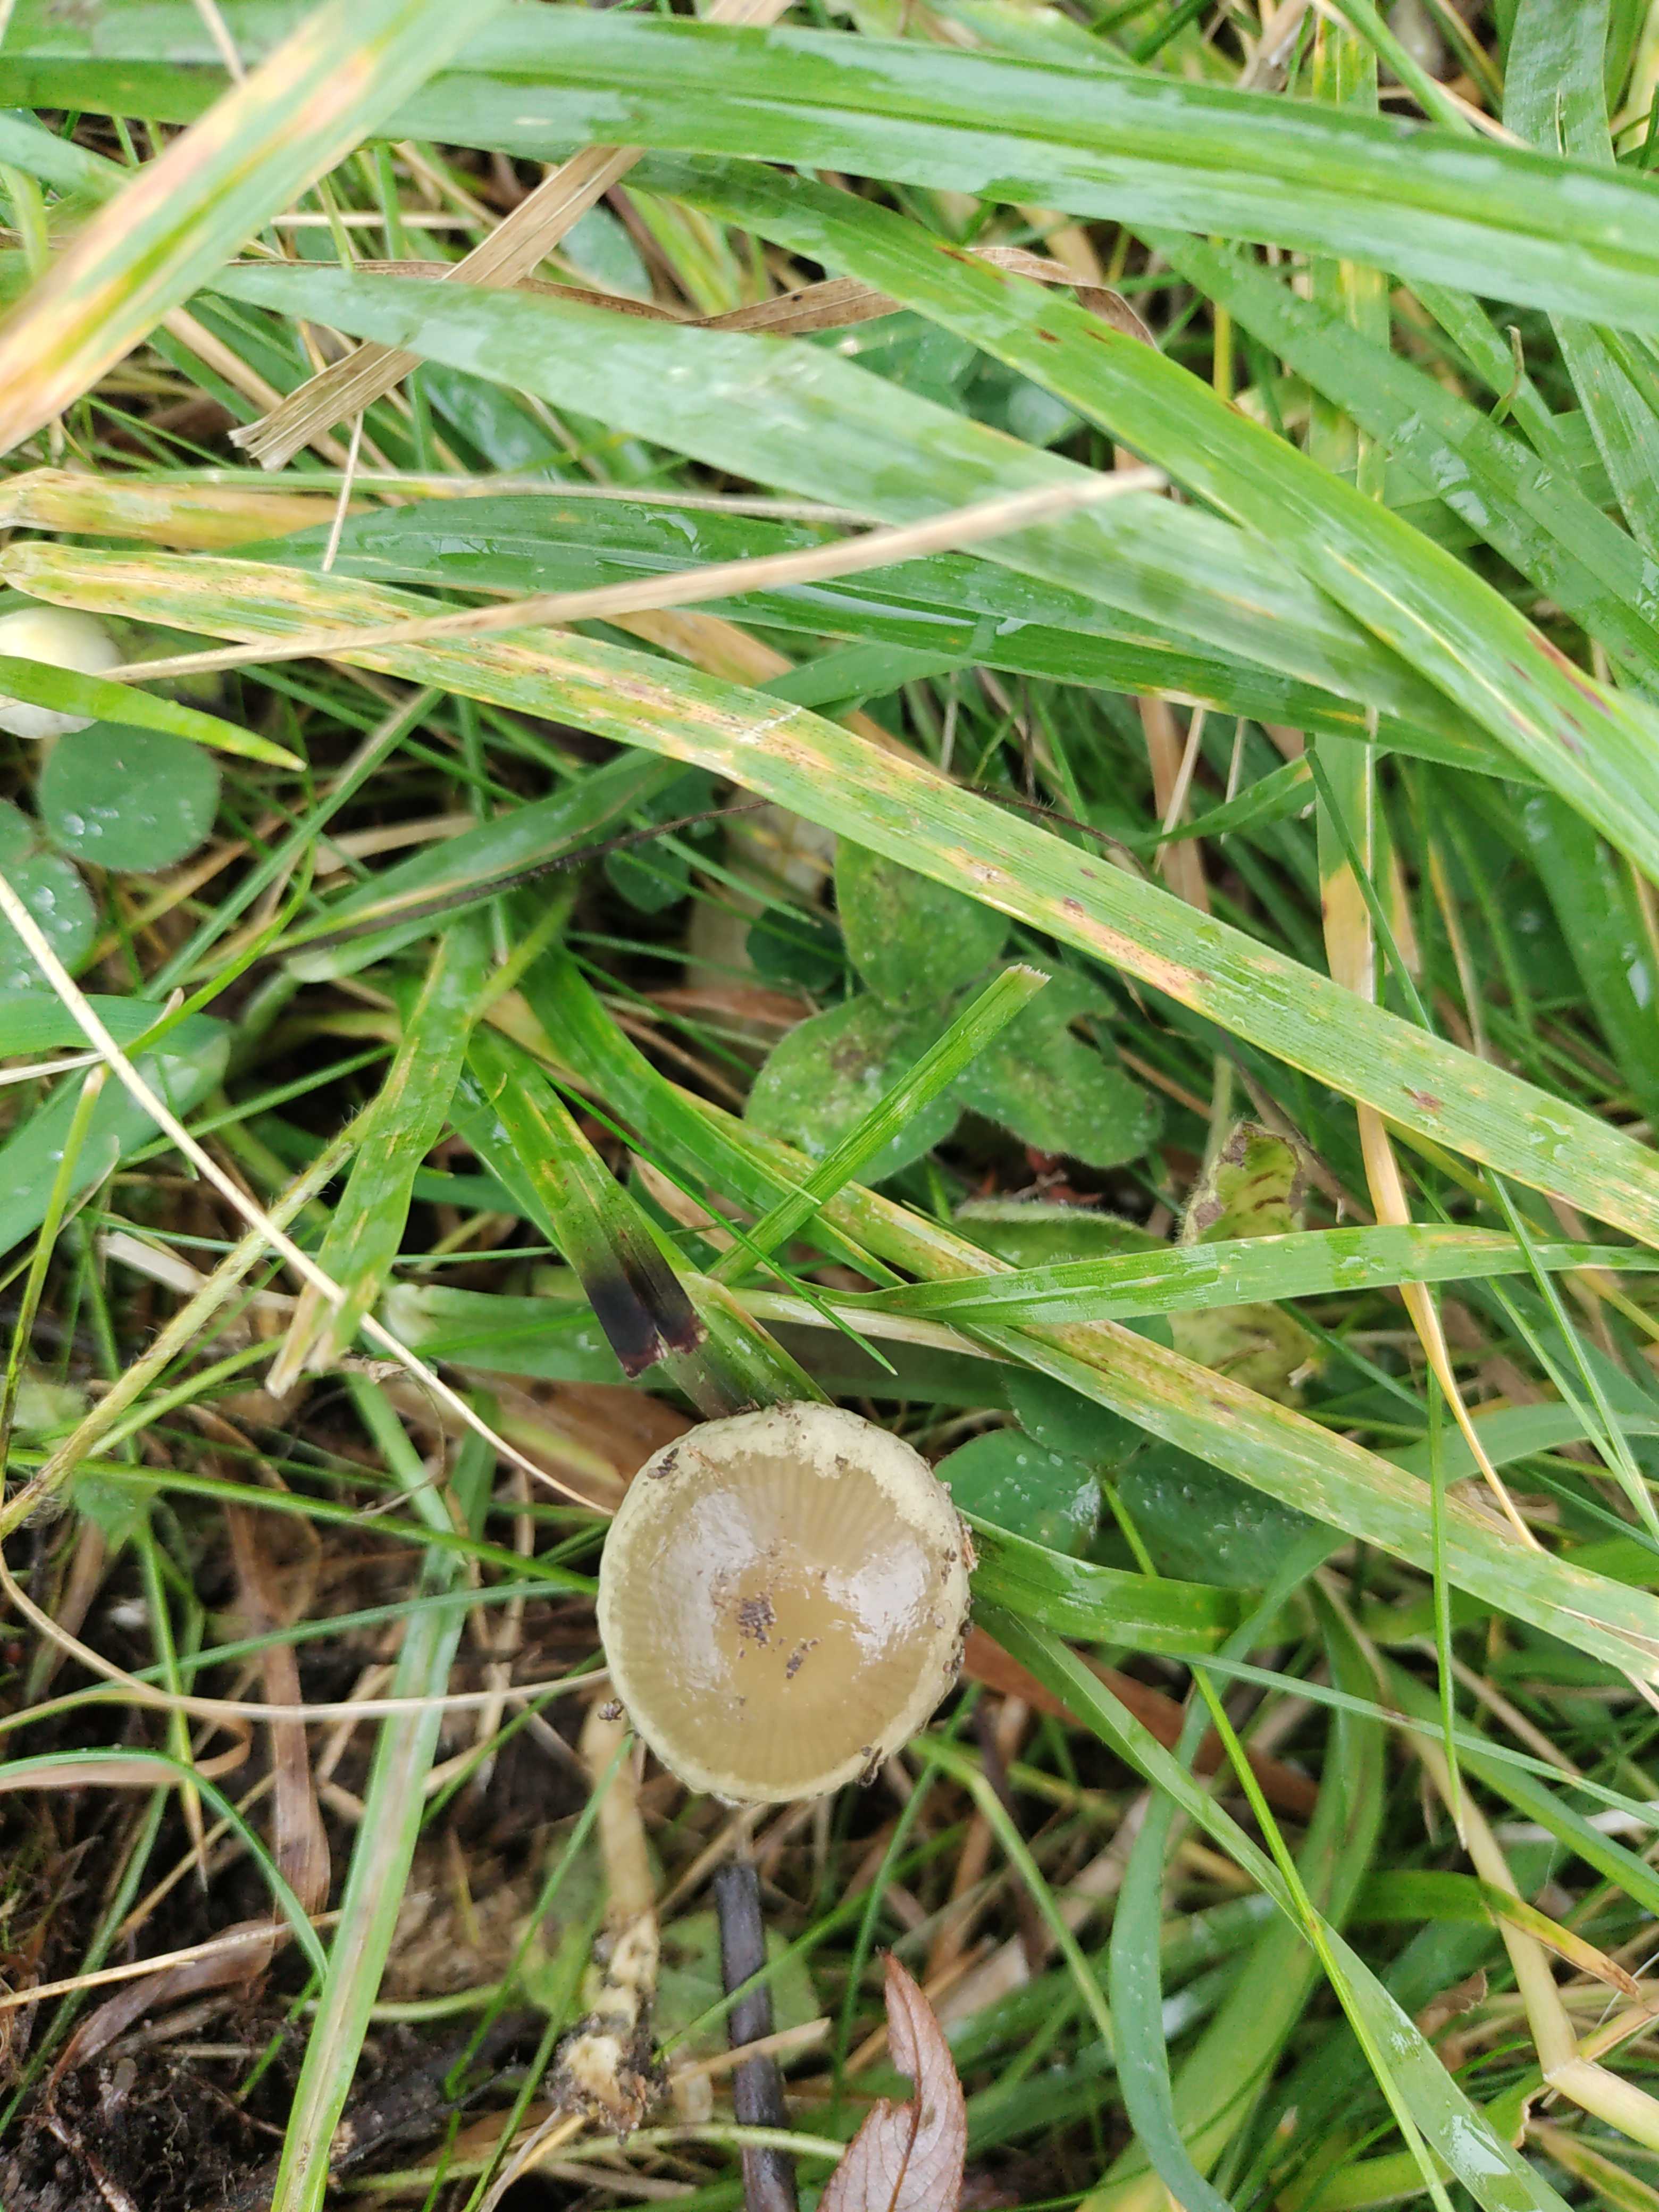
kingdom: Fungi
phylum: Basidiomycota
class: Agaricomycetes
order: Agaricales
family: Strophariaceae
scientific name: Strophariaceae
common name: bredbladfamilien
